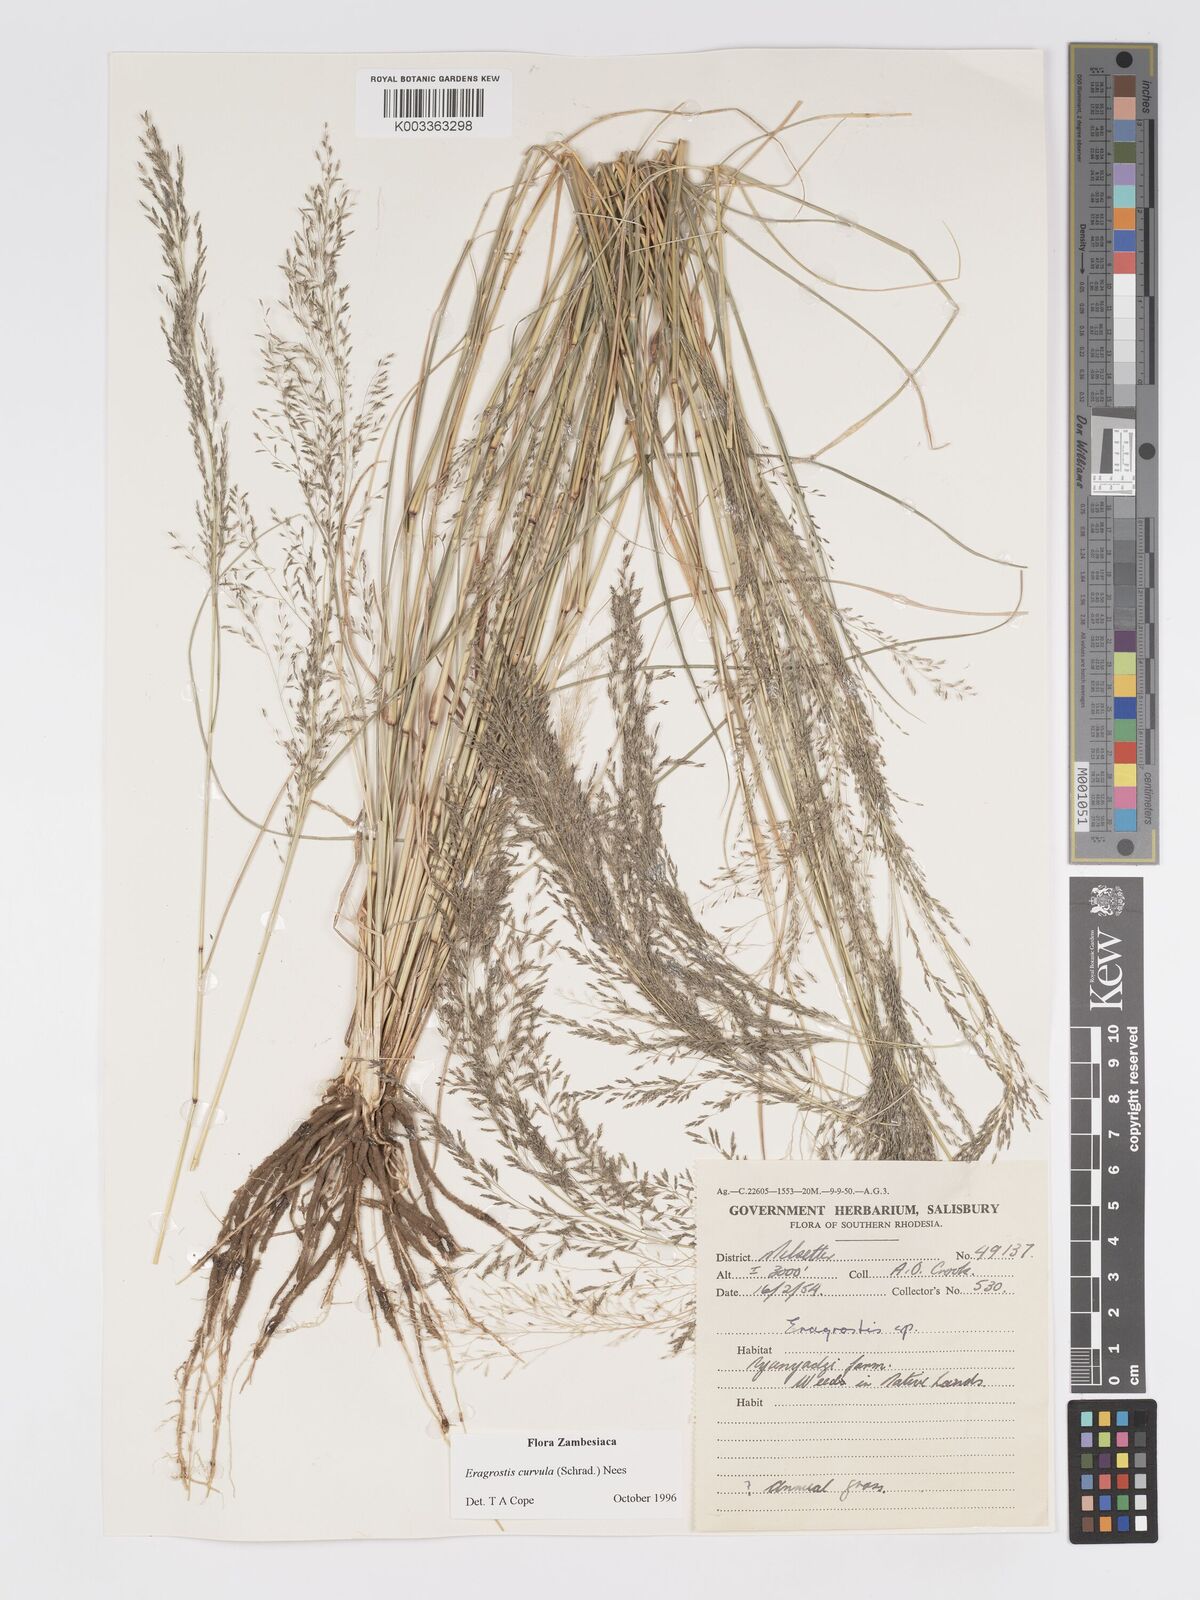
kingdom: Plantae
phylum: Tracheophyta
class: Liliopsida
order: Poales
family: Poaceae
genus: Eragrostis
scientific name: Eragrostis curvula
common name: African love-grass
